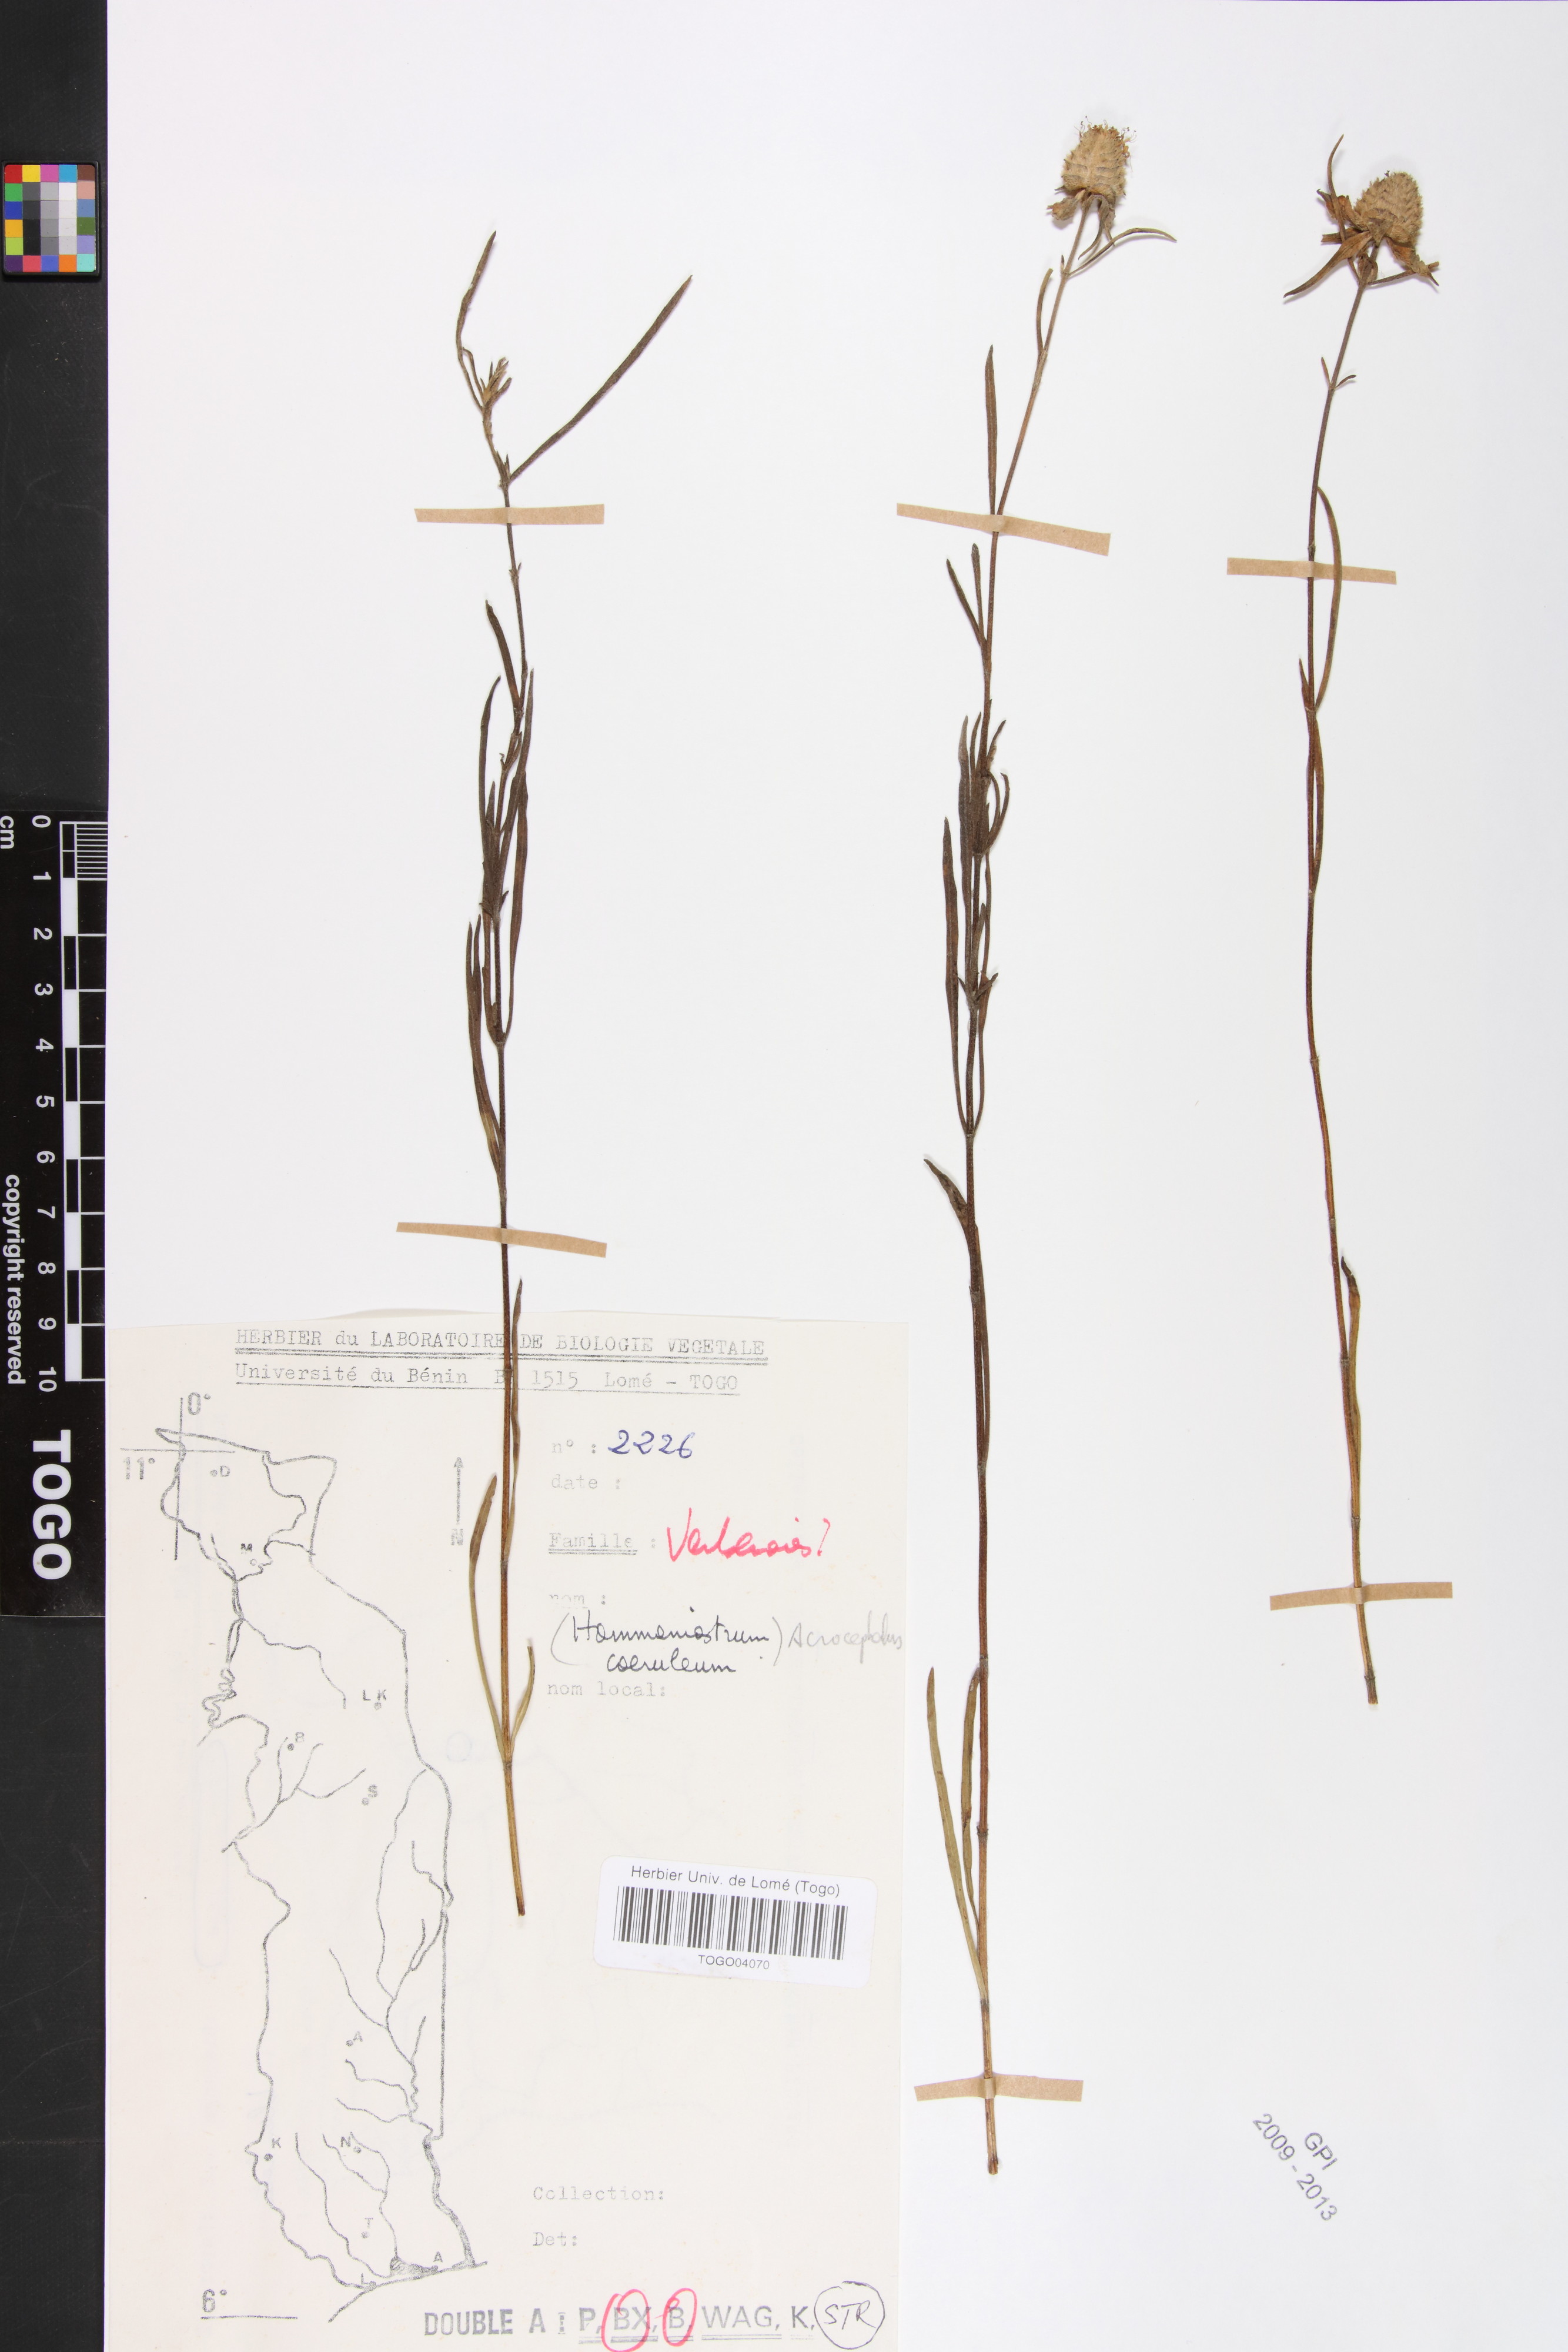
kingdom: Plantae
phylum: Tracheophyta
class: Magnoliopsida
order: Lamiales
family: Lamiaceae
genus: Haumaniastrum
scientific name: Haumaniastrum caeruleum
